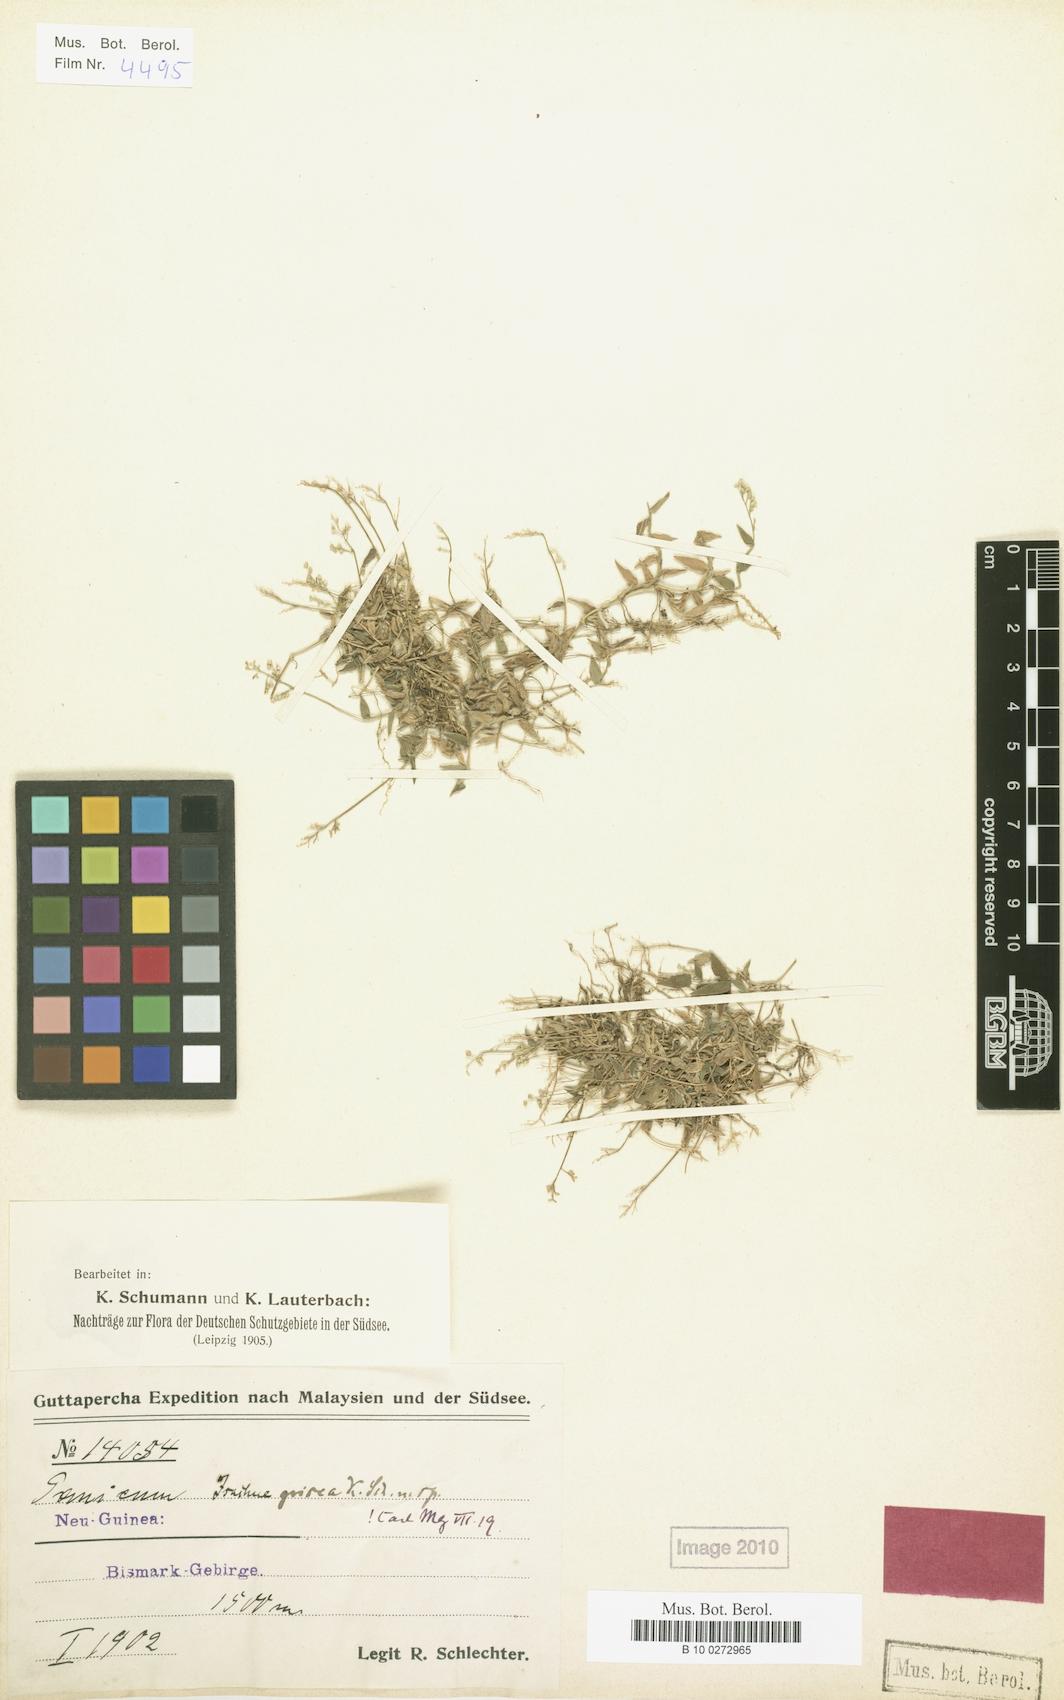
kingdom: Plantae
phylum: Tracheophyta
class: Liliopsida
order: Poales
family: Poaceae
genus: Isachne
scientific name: Isachne myosotis
